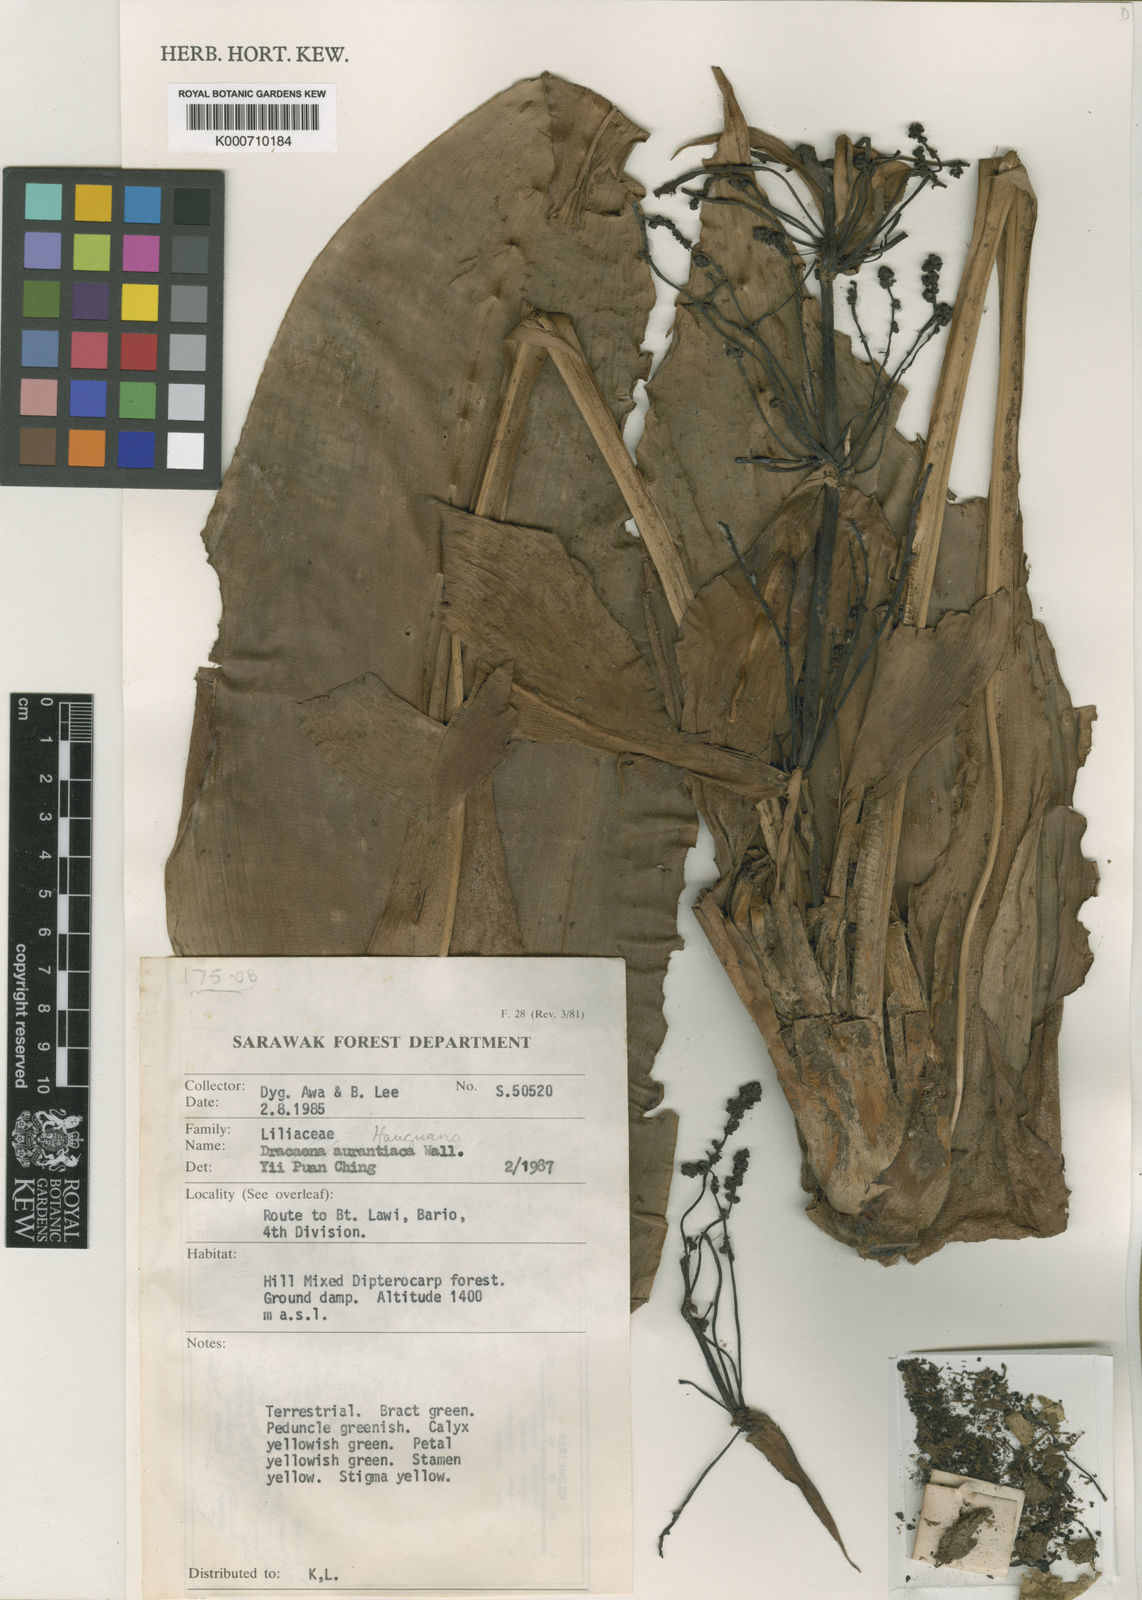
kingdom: Plantae
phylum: Tracheophyta
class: Liliopsida
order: Commelinales
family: Hanguanaceae
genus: Hanguana
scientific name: Hanguana
